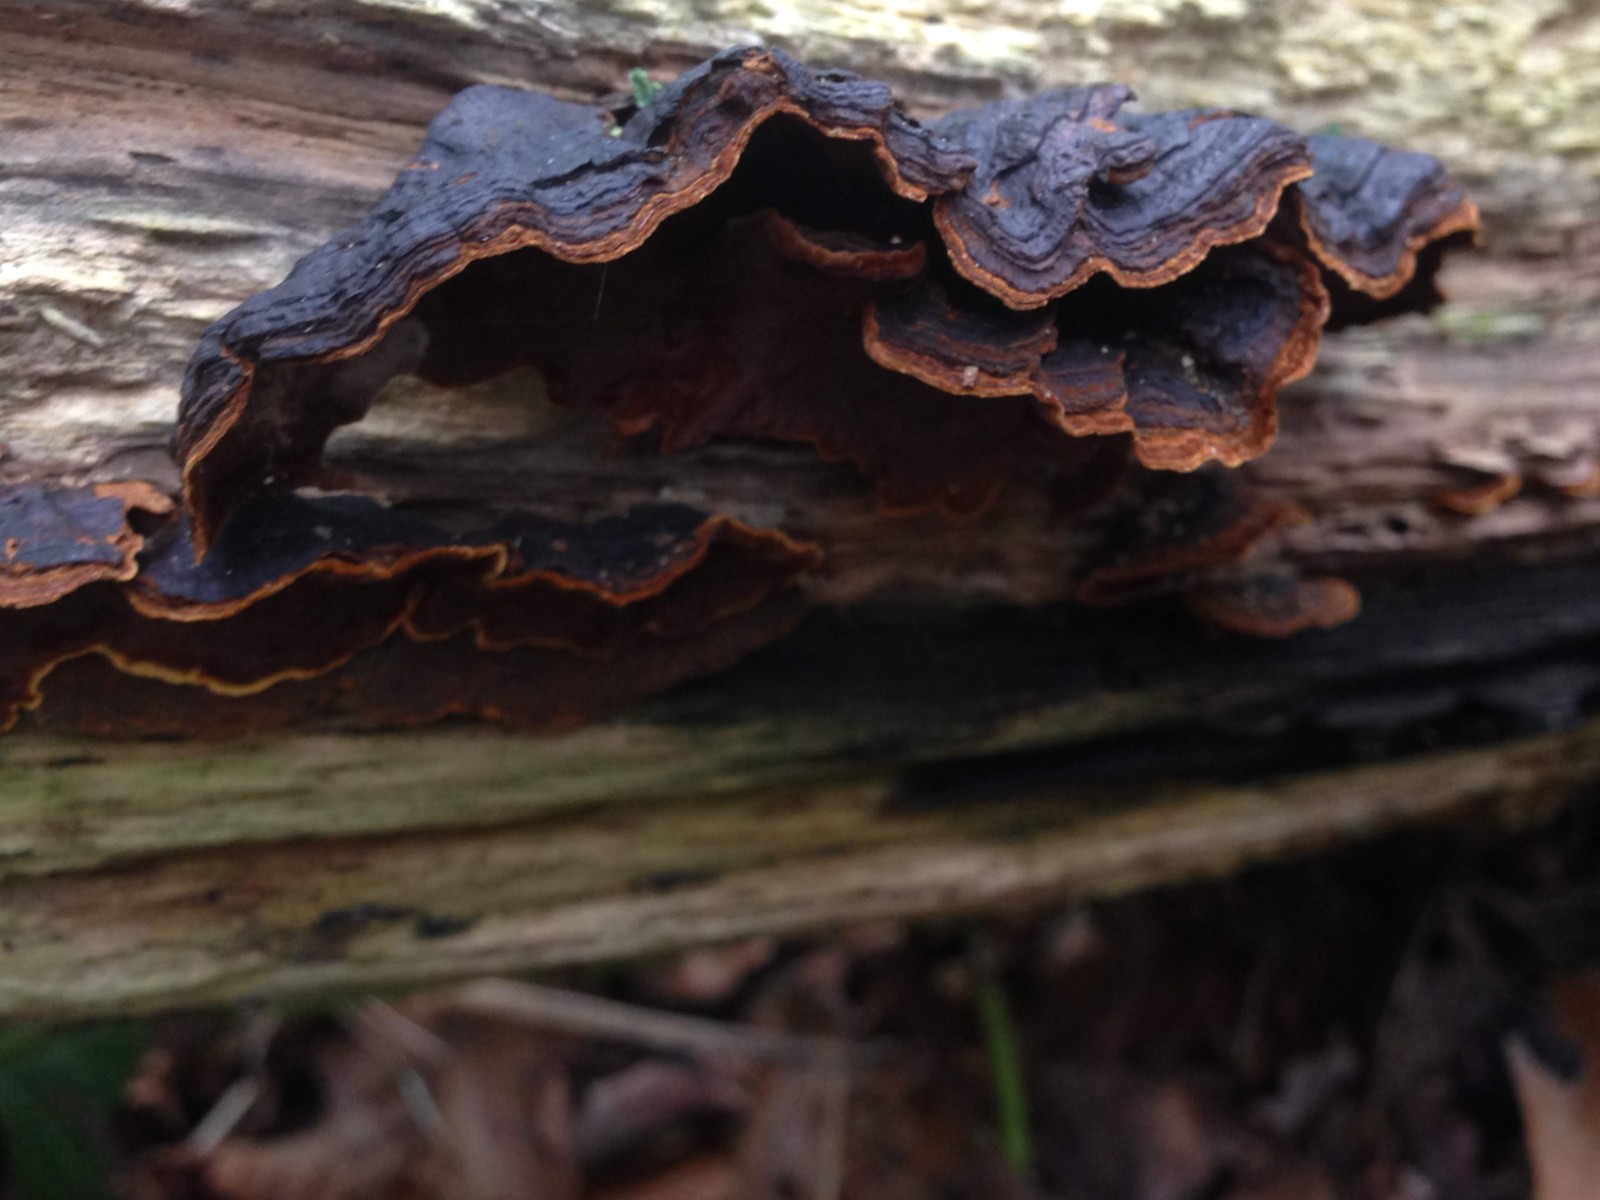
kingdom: Fungi
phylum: Basidiomycota
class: Agaricomycetes
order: Hymenochaetales
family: Hymenochaetaceae
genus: Hymenochaete
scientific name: Hymenochaete rubiginosa
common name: stiv ruslædersvamp
